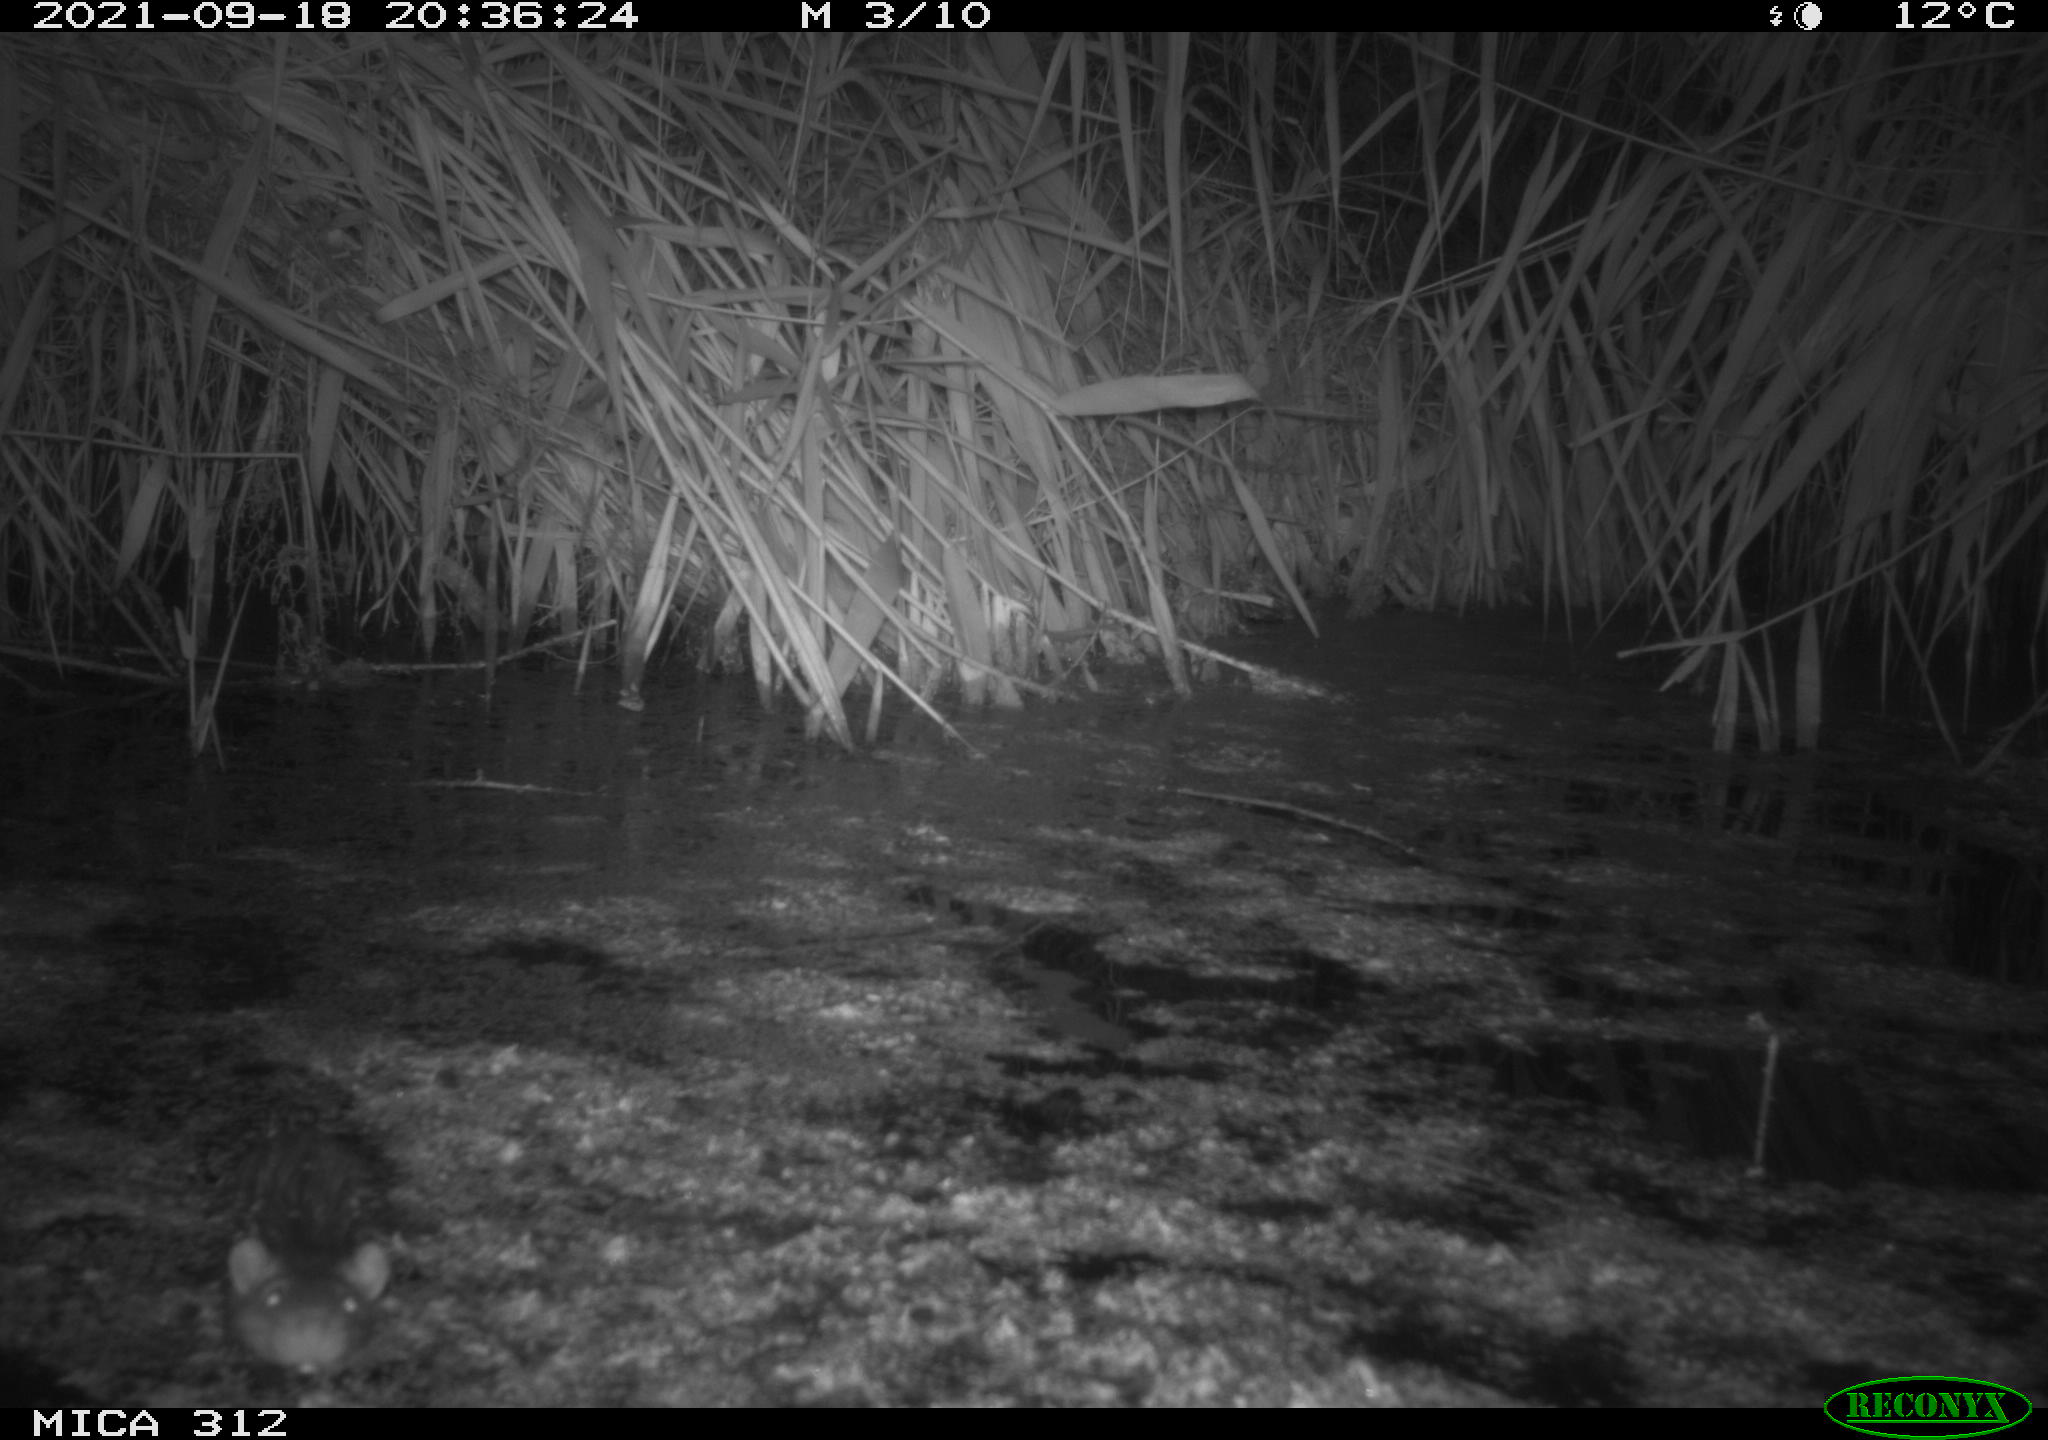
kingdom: Animalia
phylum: Chordata
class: Mammalia
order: Rodentia
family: Muridae
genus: Rattus
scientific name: Rattus norvegicus
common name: Brown rat
